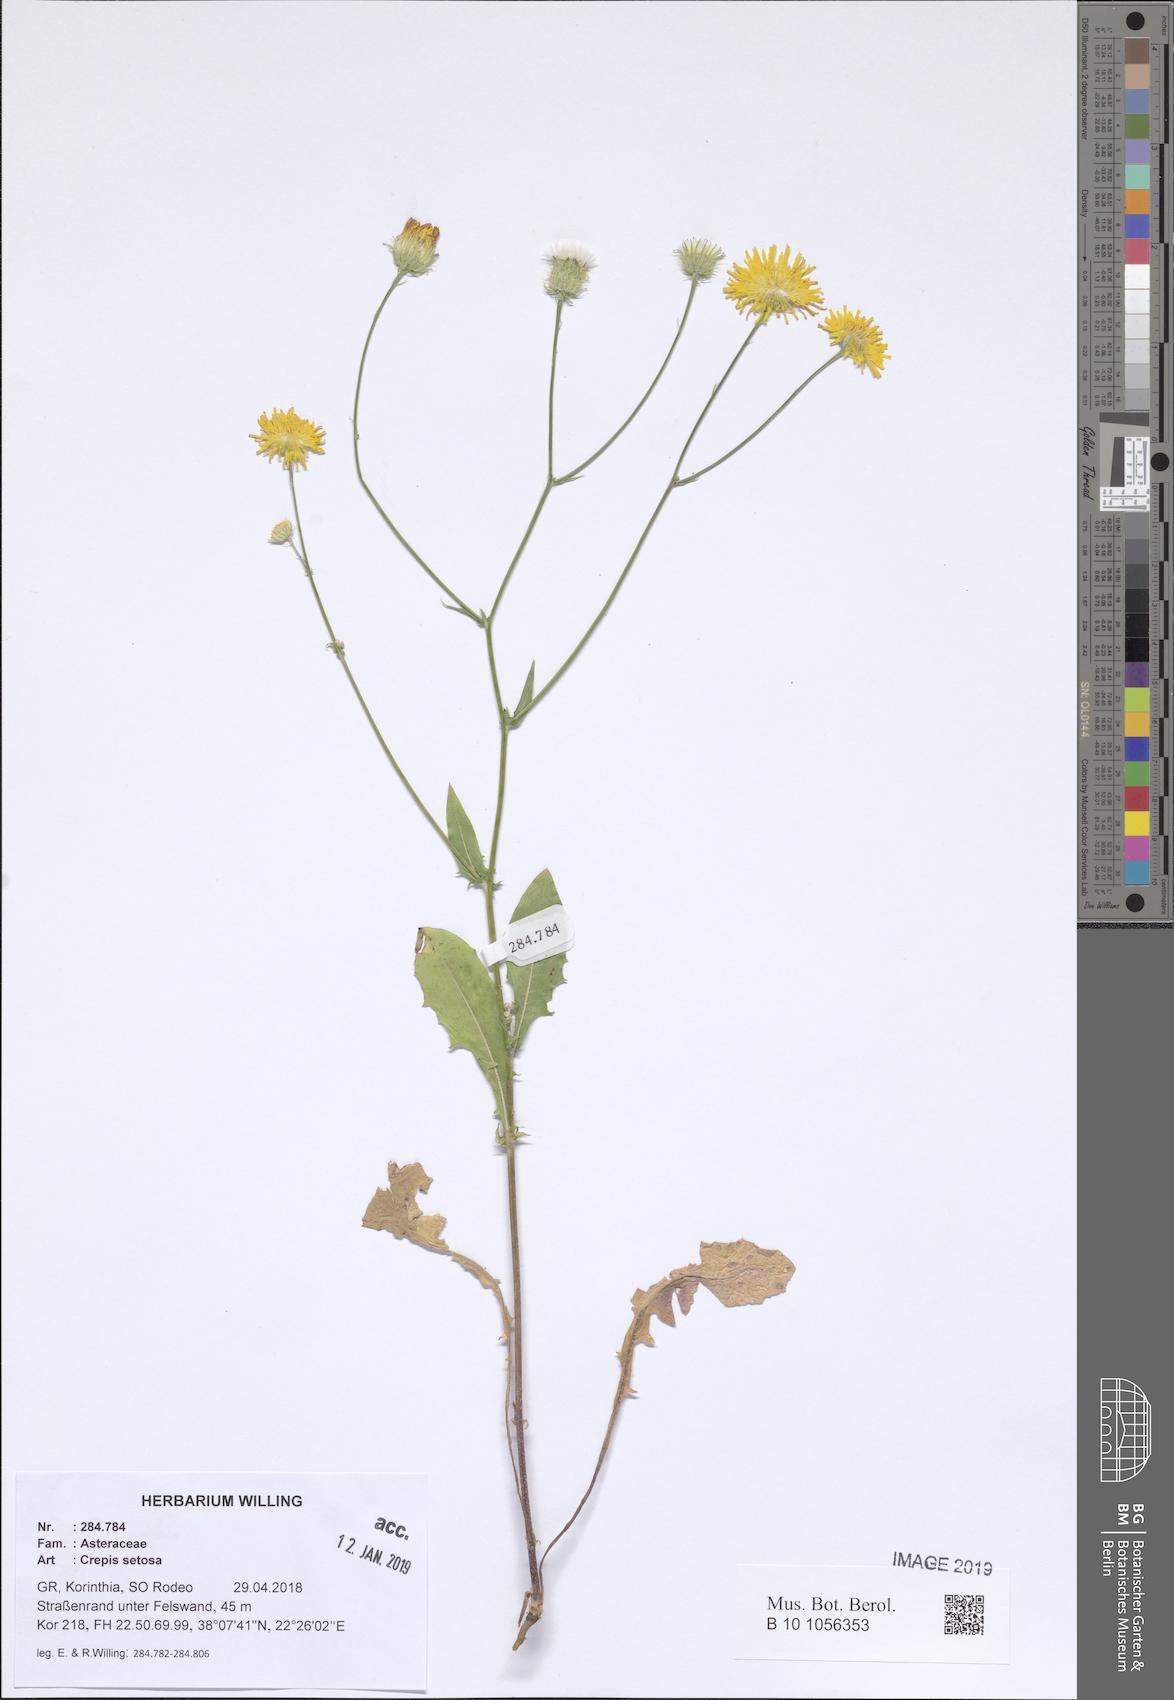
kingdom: Plantae
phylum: Tracheophyta
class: Magnoliopsida
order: Asterales
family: Asteraceae
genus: Crepis
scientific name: Crepis setosa
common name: Bristly hawk's-beard
